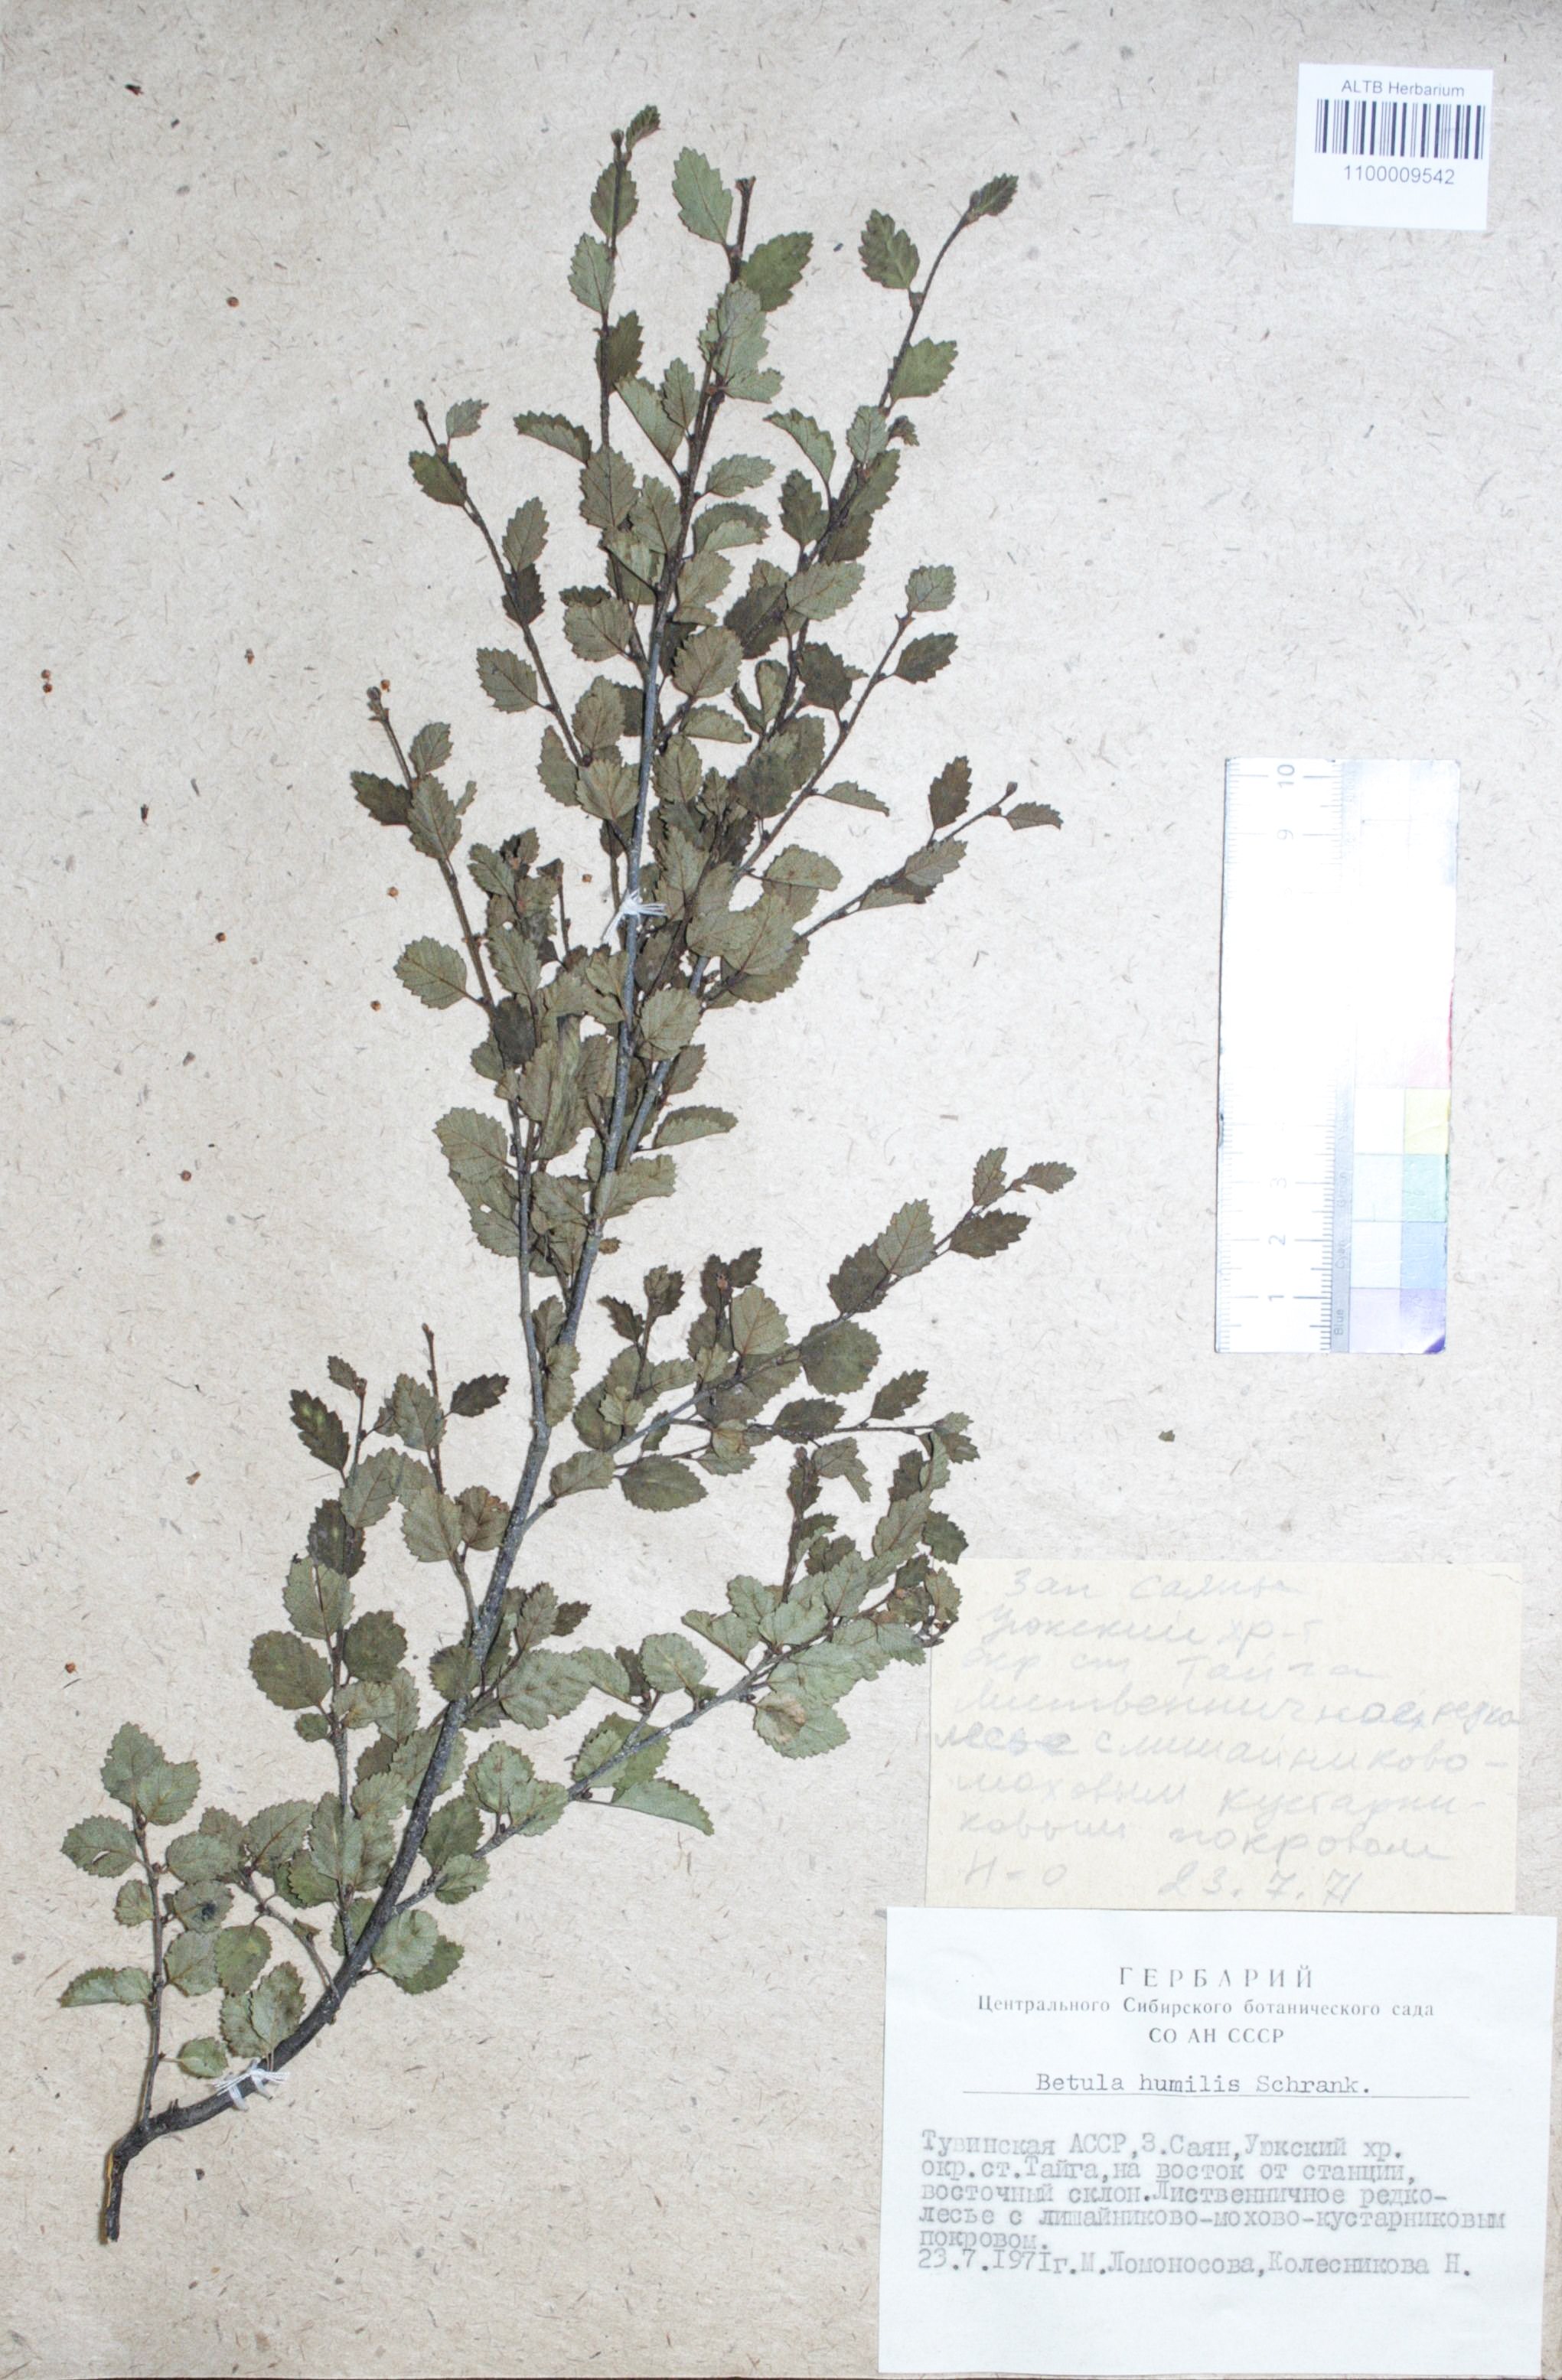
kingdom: Plantae
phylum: Tracheophyta
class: Magnoliopsida
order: Fagales
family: Betulaceae
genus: Betula
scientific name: Betula humilis
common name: Shrubby birch
